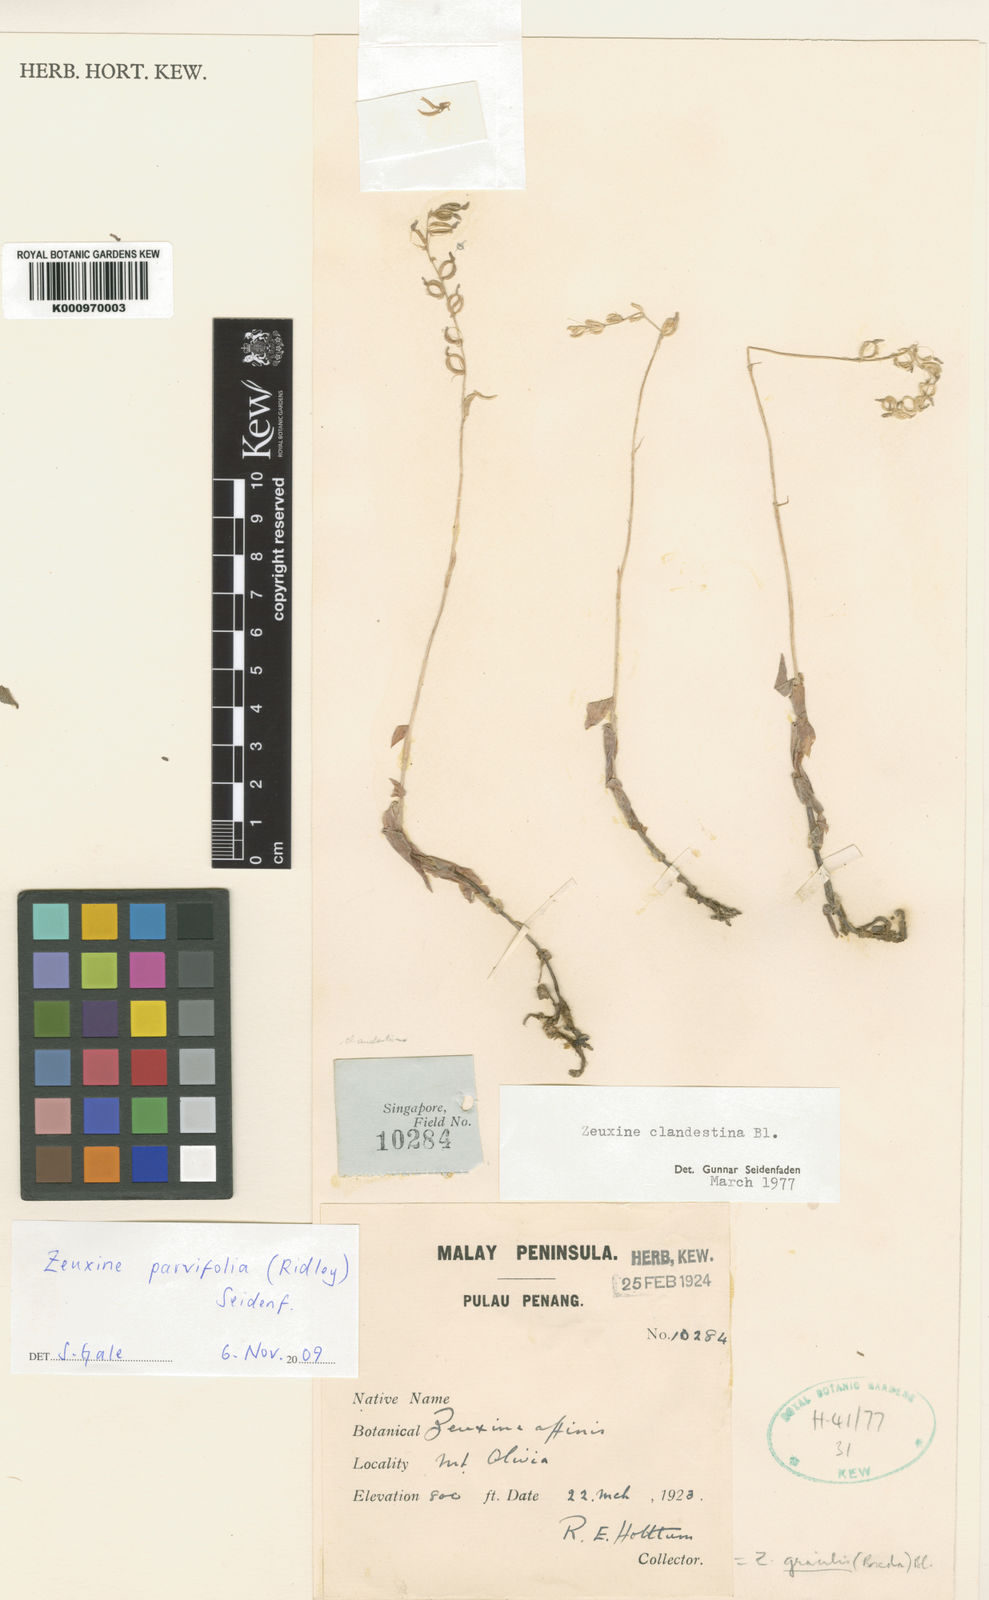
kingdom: Plantae
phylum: Tracheophyta
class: Liliopsida
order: Asparagales
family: Orchidaceae
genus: Zeuxine
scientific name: Zeuxine clandestina
